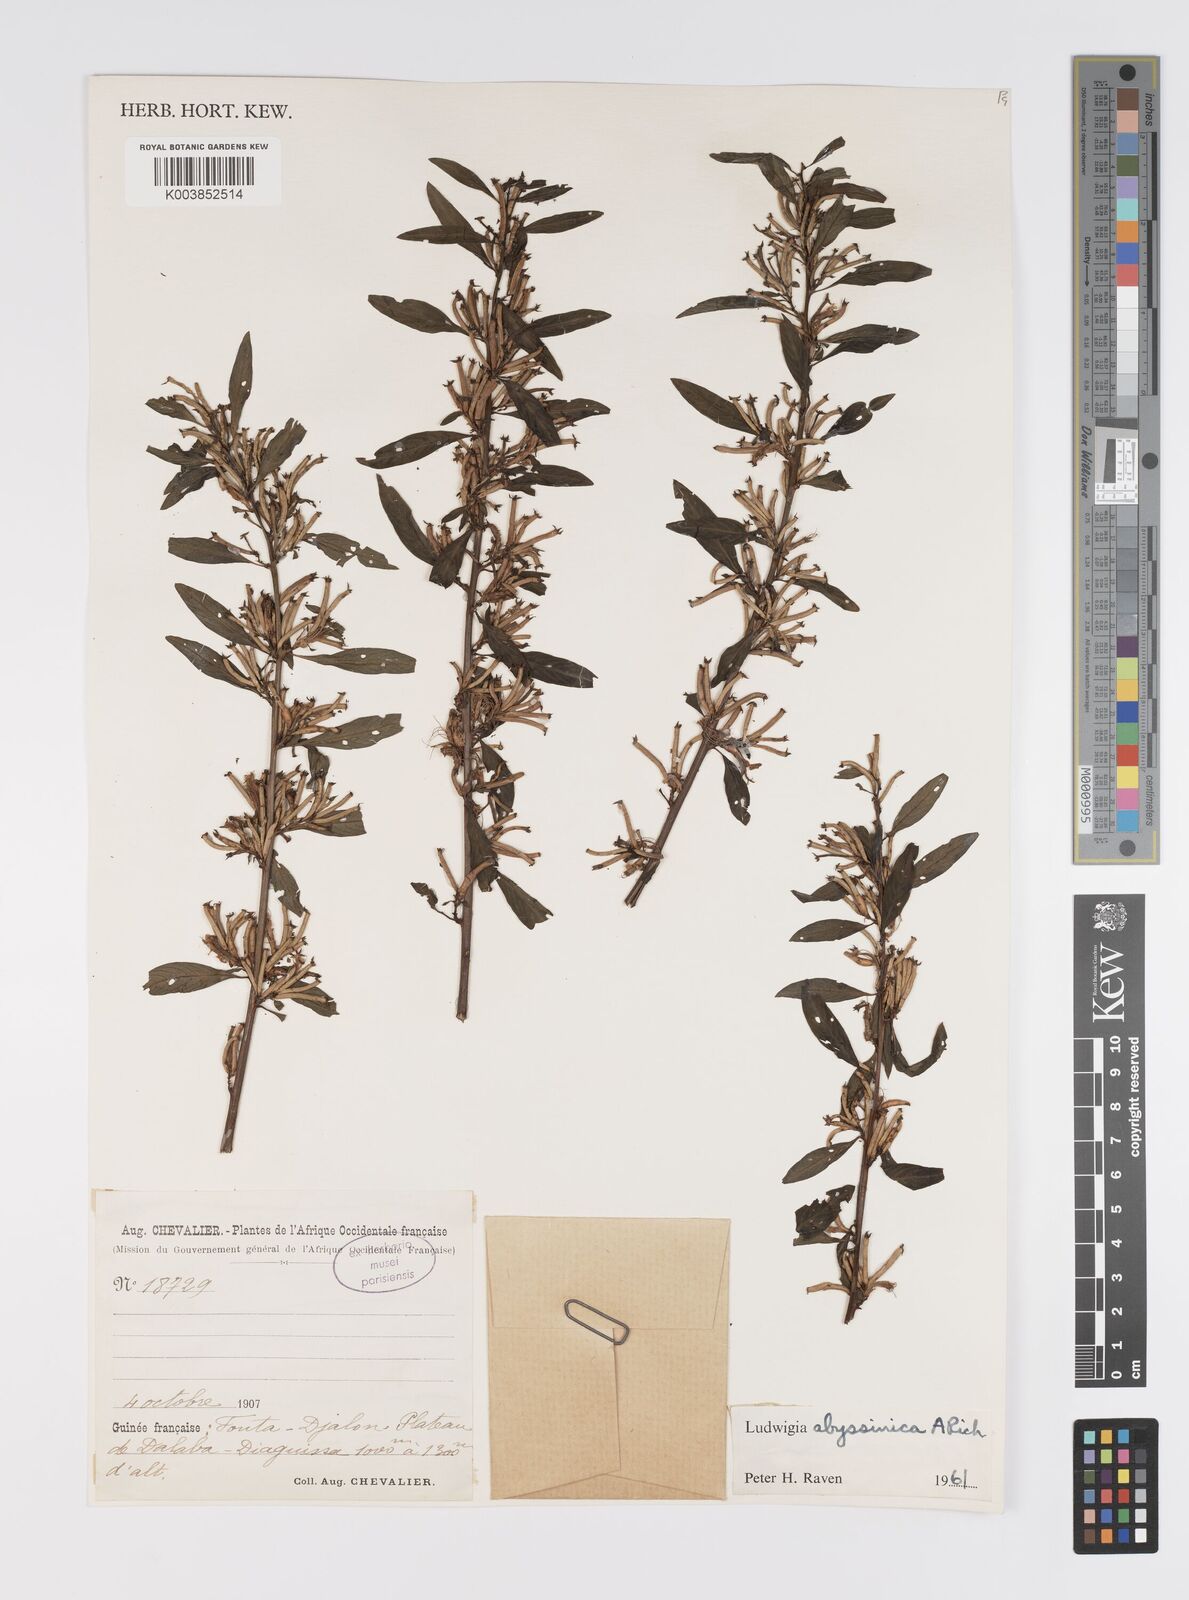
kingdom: Plantae
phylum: Tracheophyta
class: Magnoliopsida
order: Myrtales
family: Onagraceae
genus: Ludwigia
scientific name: Ludwigia abyssinica
